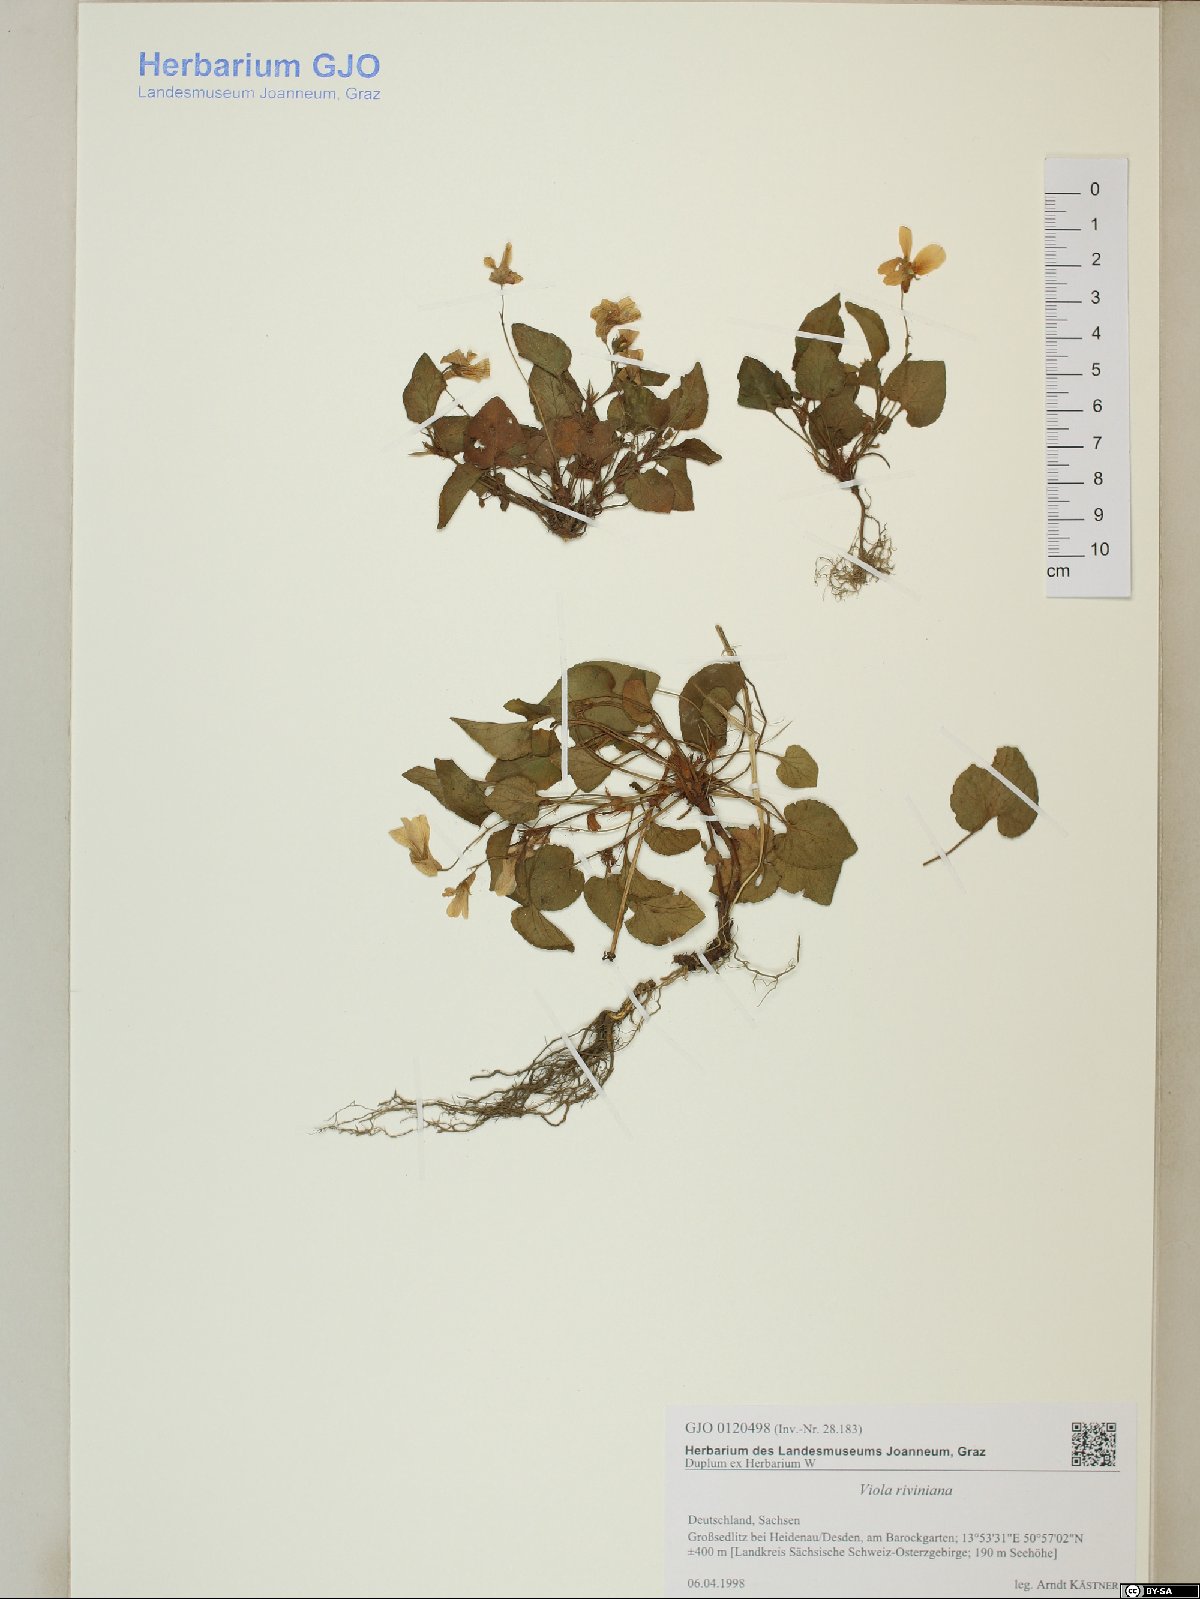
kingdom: Plantae
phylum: Tracheophyta
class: Magnoliopsida
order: Malpighiales
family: Violaceae
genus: Viola
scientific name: Viola riviniana
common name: Common dog-violet
